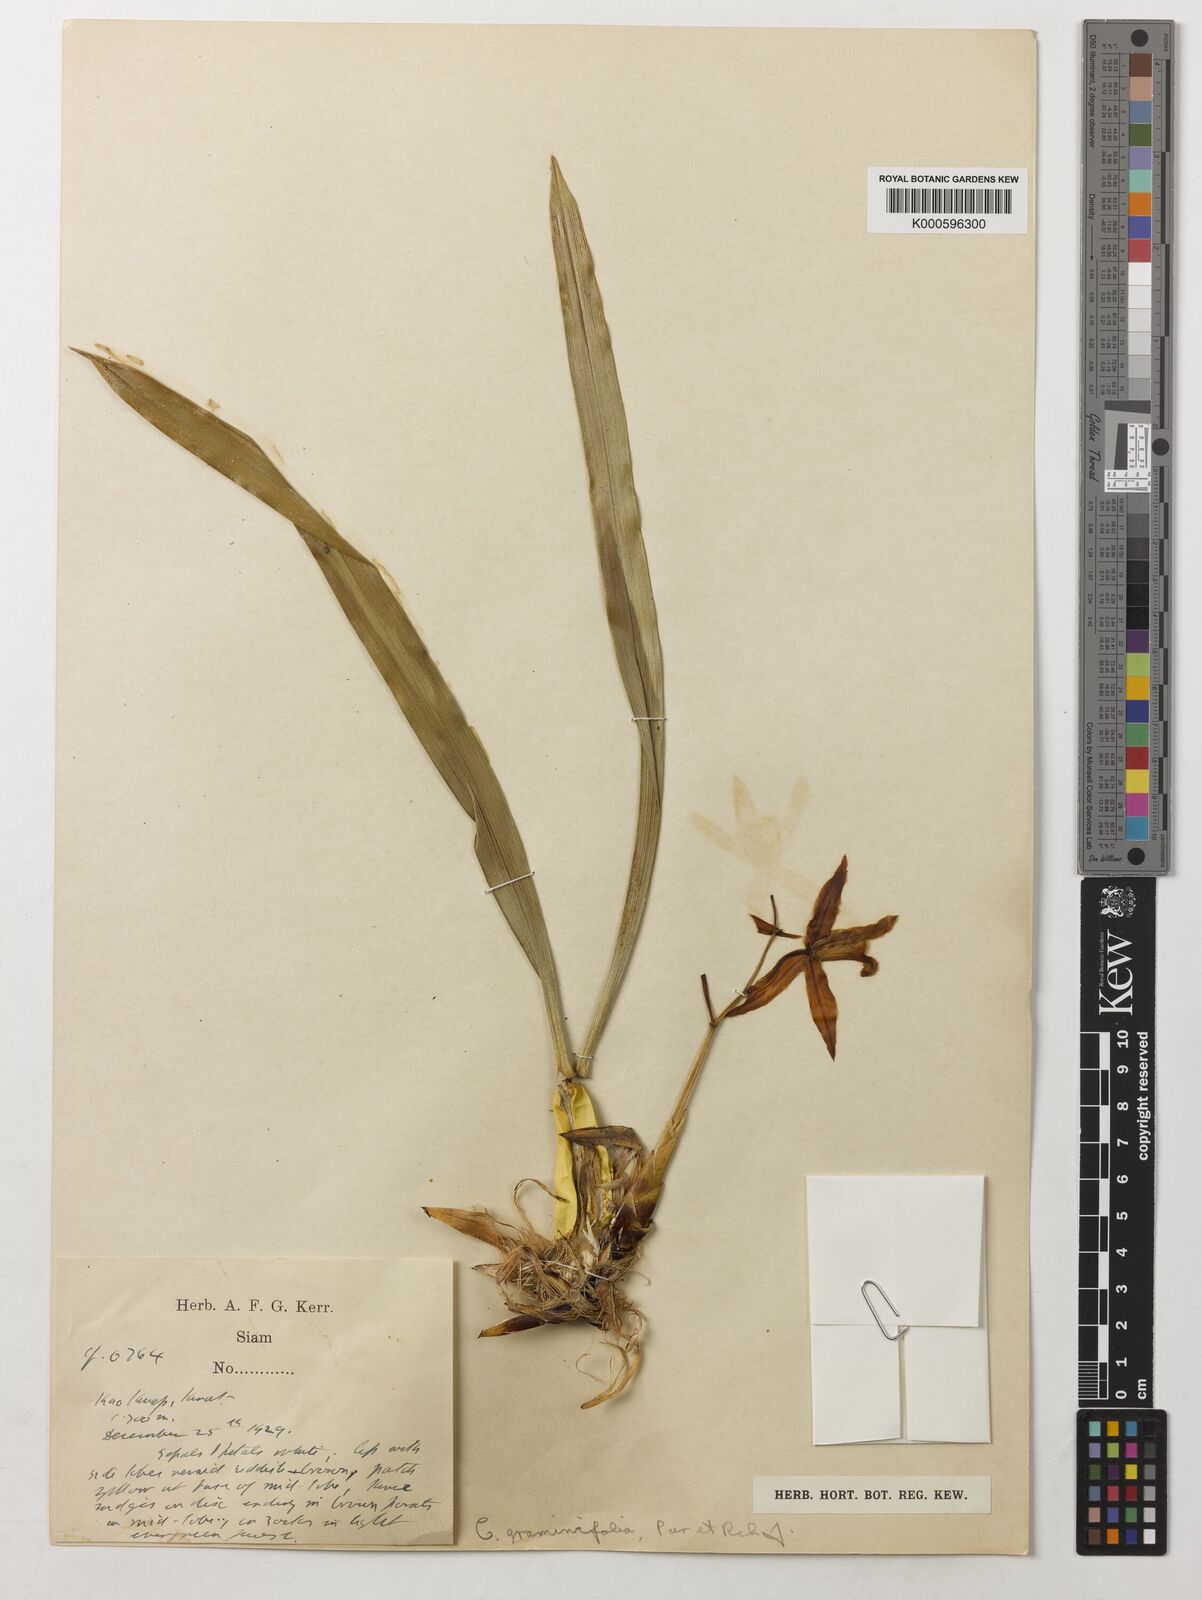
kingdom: Plantae
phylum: Tracheophyta
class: Liliopsida
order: Asparagales
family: Orchidaceae
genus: Coelogyne
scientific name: Coelogyne viscosa
